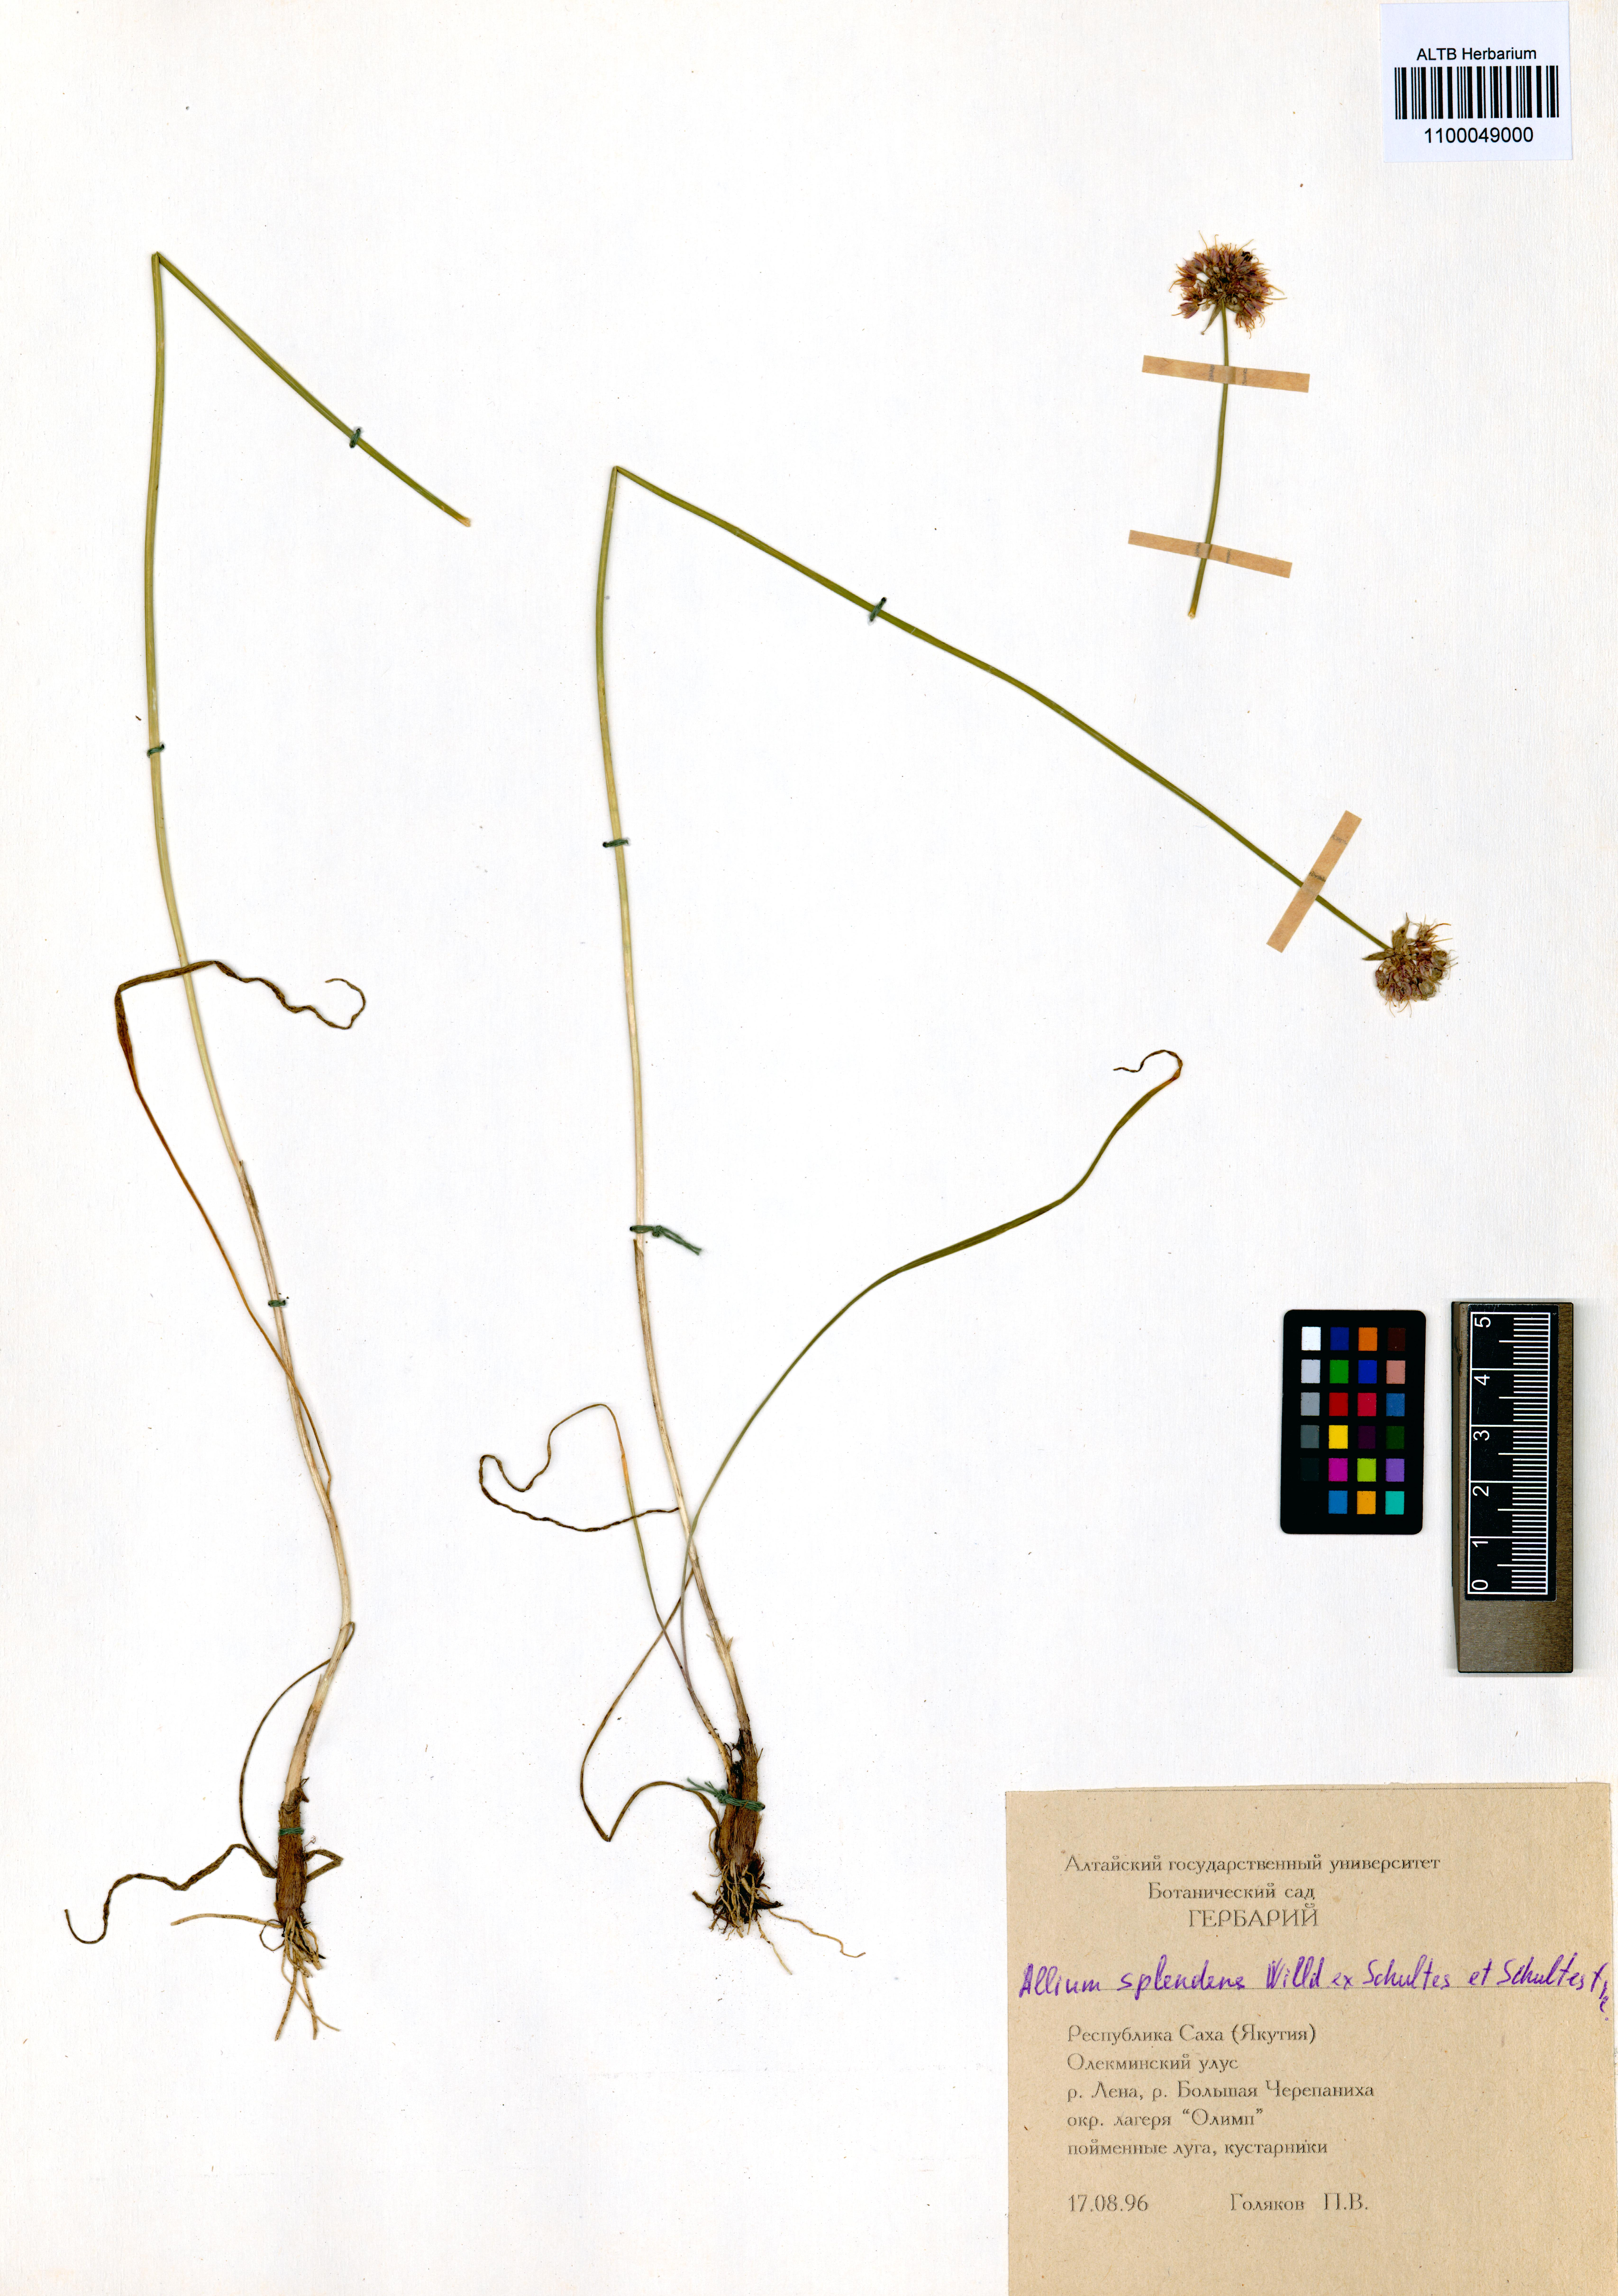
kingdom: Plantae
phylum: Tracheophyta
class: Liliopsida
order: Asparagales
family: Amaryllidaceae
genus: Allium
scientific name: Allium splendens
